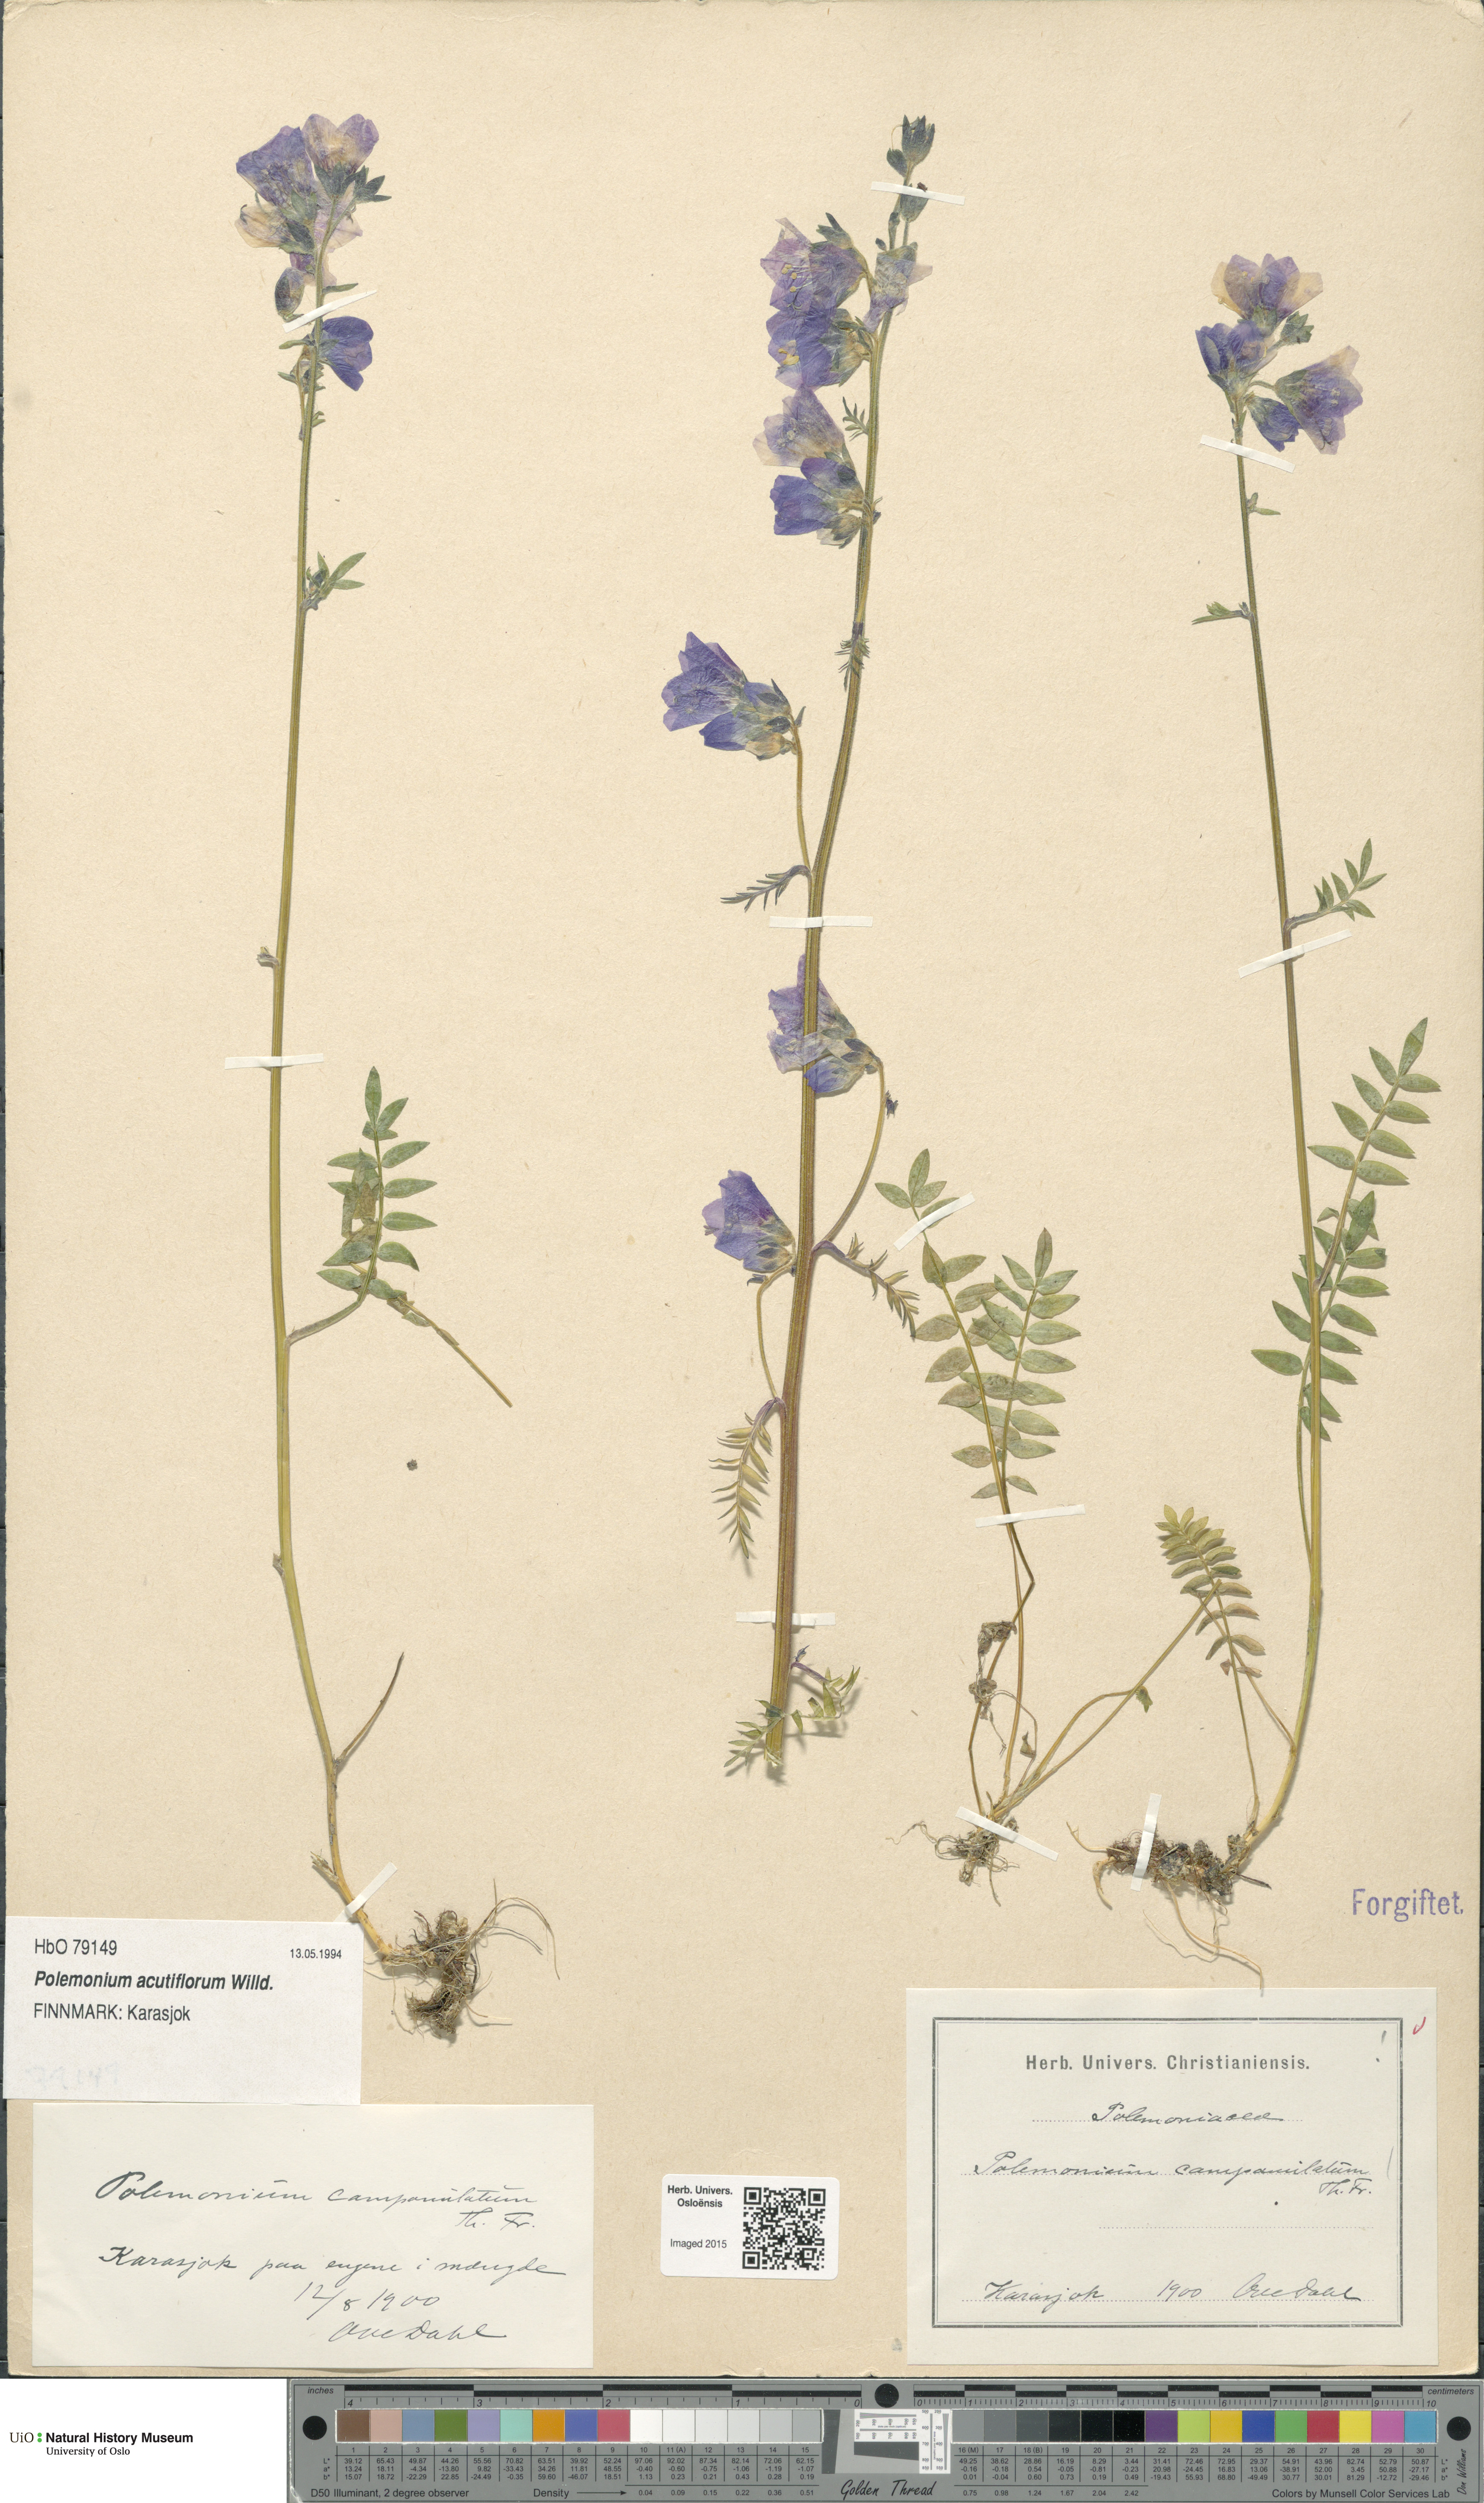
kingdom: Plantae
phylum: Tracheophyta
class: Magnoliopsida
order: Ericales
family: Polemoniaceae
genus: Polemonium
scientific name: Polemonium villosum
